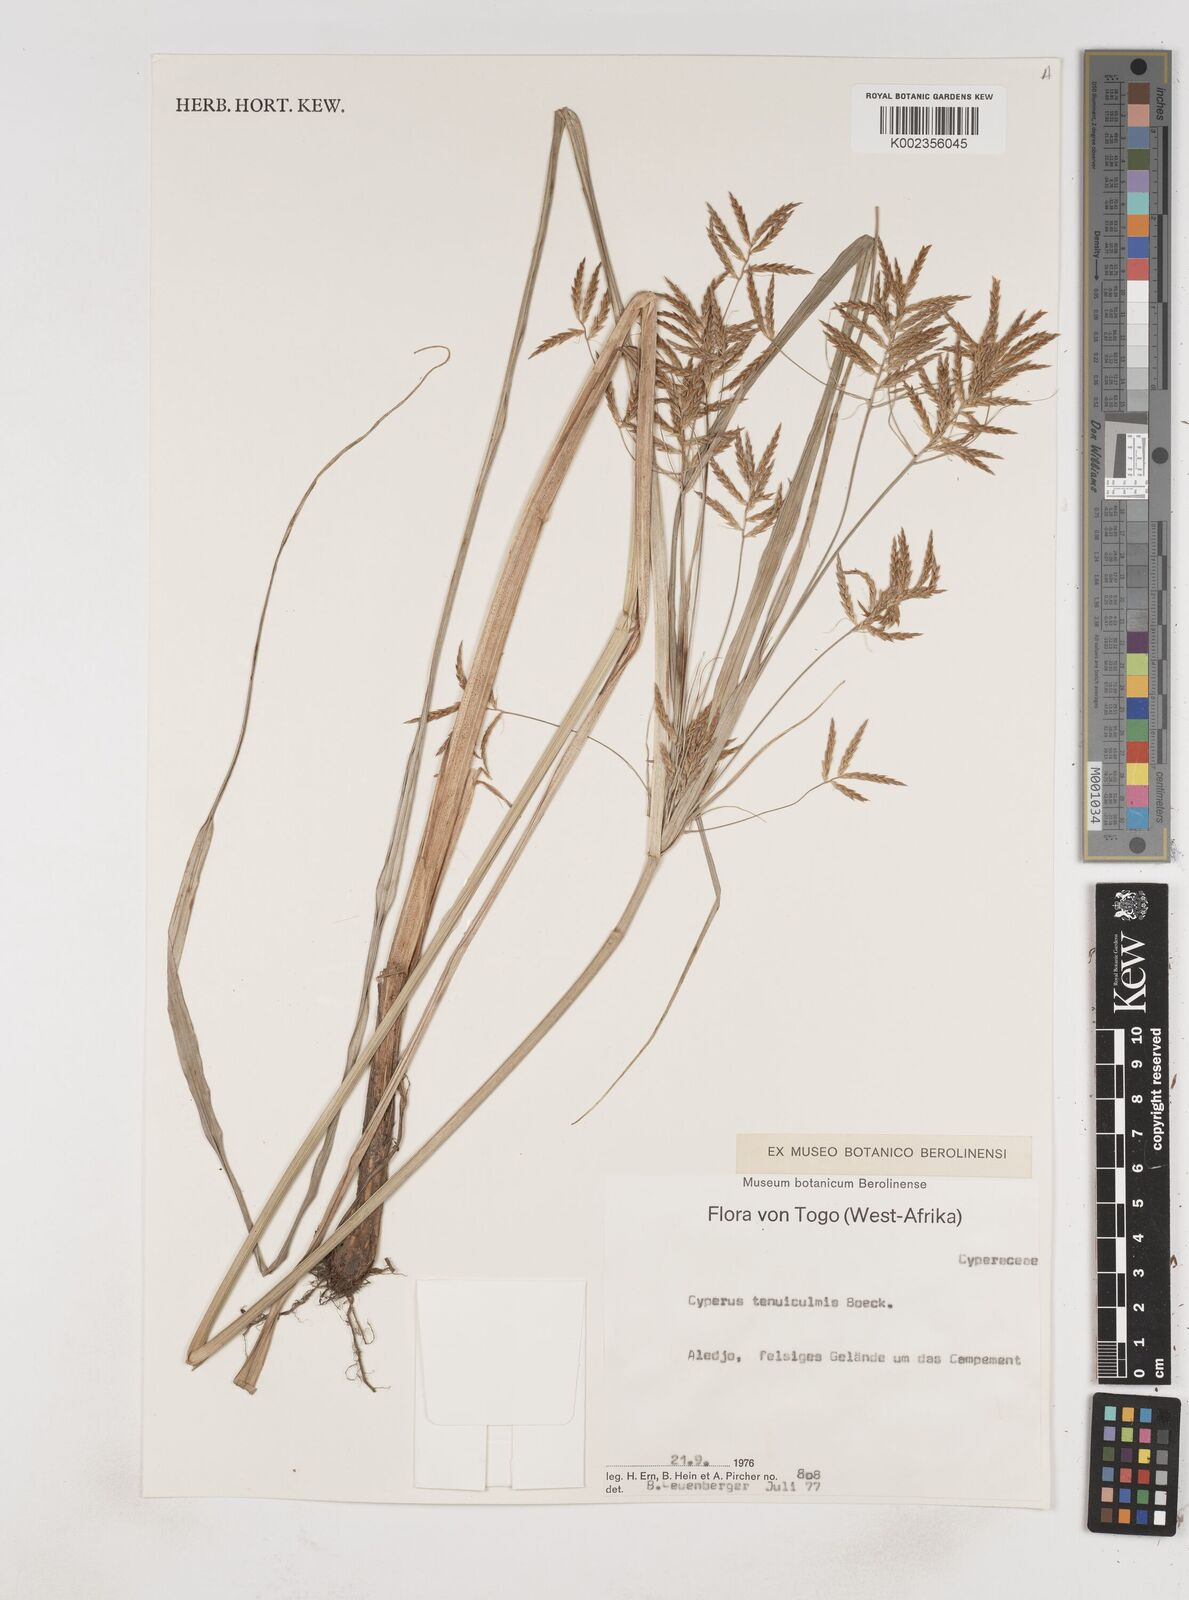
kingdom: Plantae
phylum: Tracheophyta
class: Liliopsida
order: Poales
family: Cyperaceae
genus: Cyperus
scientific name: Cyperus tenuiculmis
